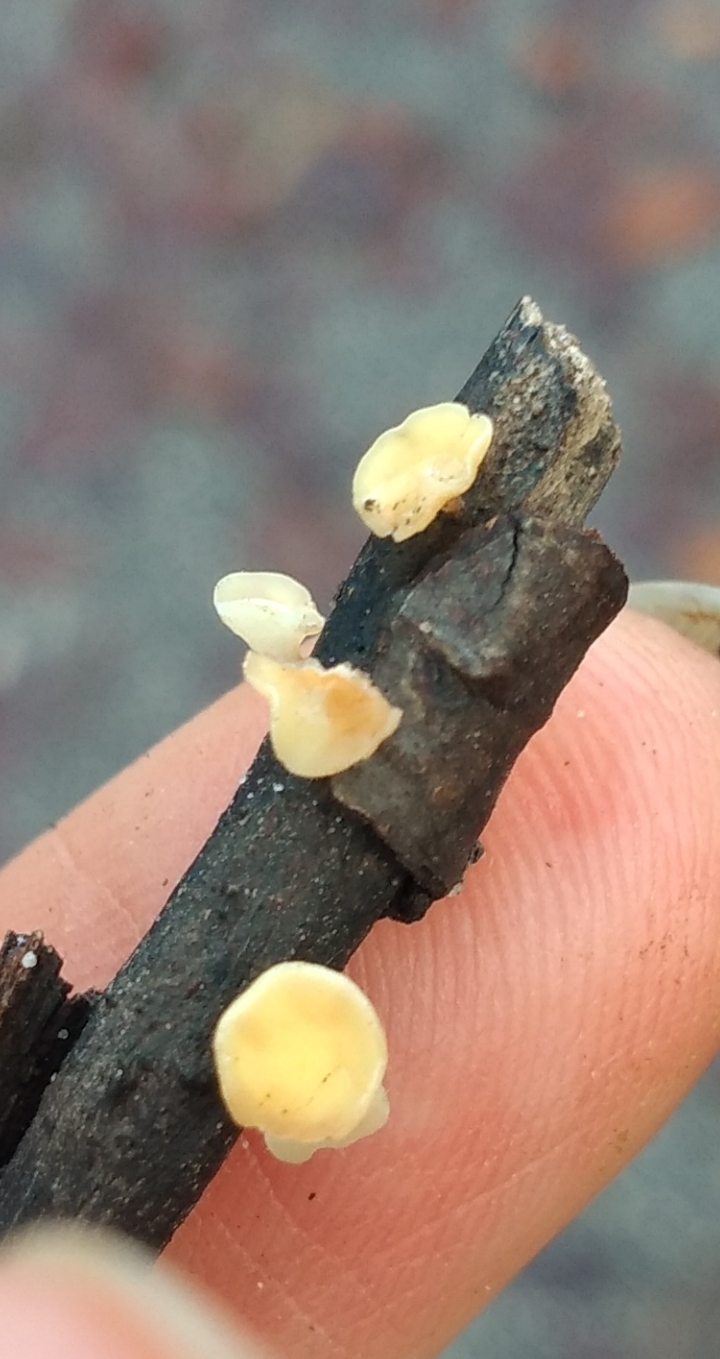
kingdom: Fungi
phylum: Ascomycota
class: Leotiomycetes
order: Helotiales
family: Helotiaceae
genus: Hymenoscyphus
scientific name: Hymenoscyphus
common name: stilkskive
